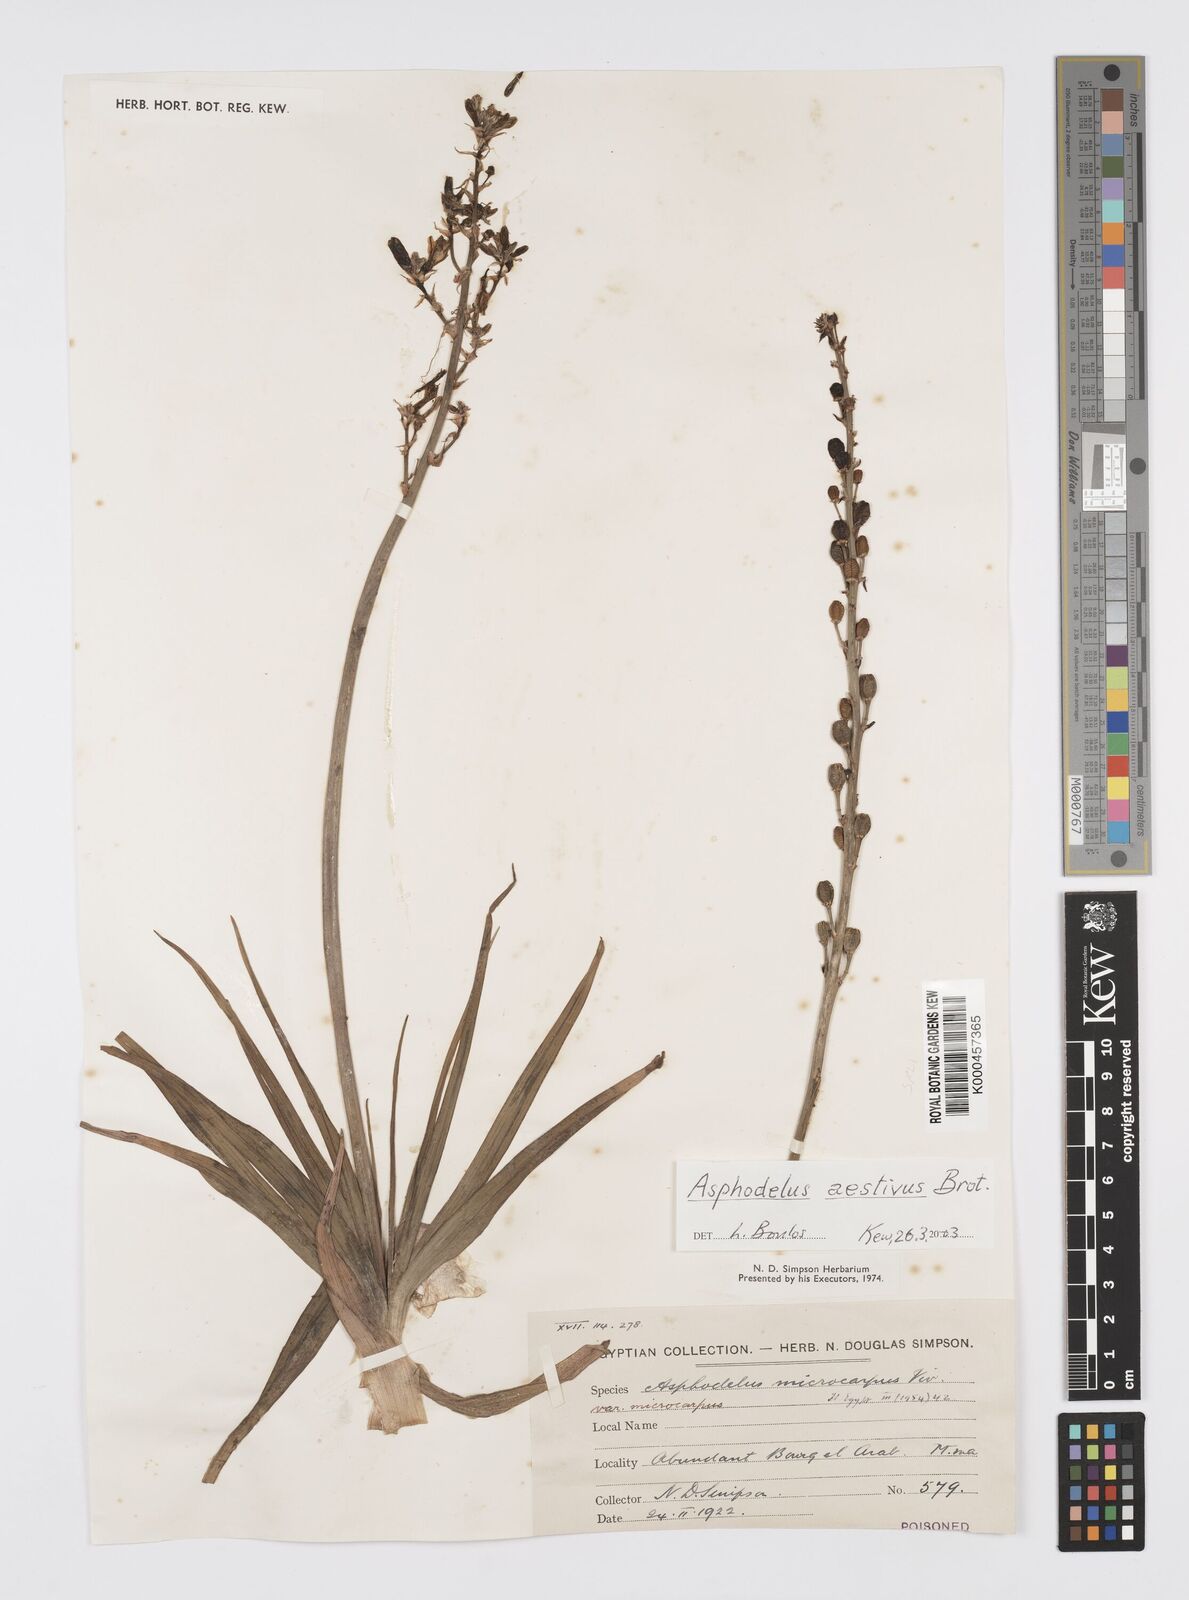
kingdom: Plantae
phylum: Tracheophyta
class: Liliopsida
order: Asparagales
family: Asphodelaceae
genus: Asphodelus
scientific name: Asphodelus aestivus
